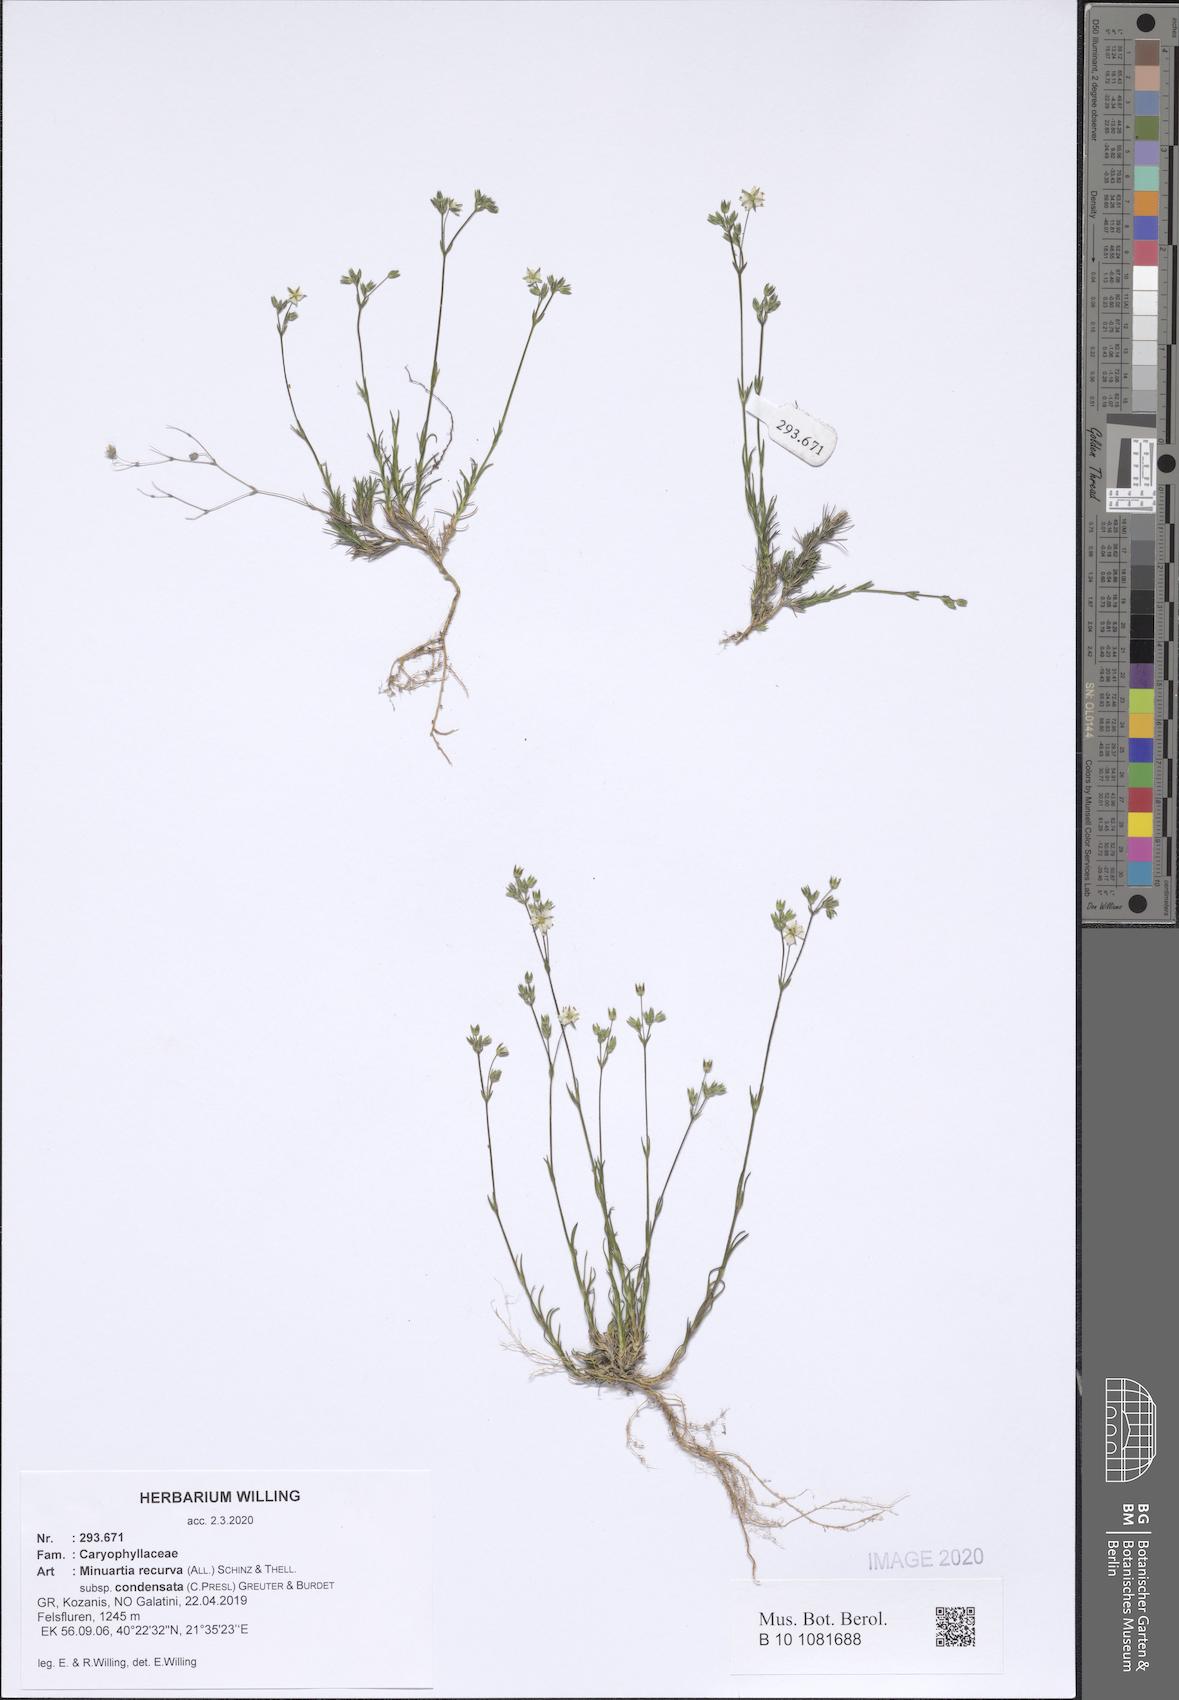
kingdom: Plantae
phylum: Tracheophyta
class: Magnoliopsida
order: Caryophyllales
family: Caryophyllaceae
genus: Minuartia
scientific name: Minuartia recurva
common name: Recurved sandwort
